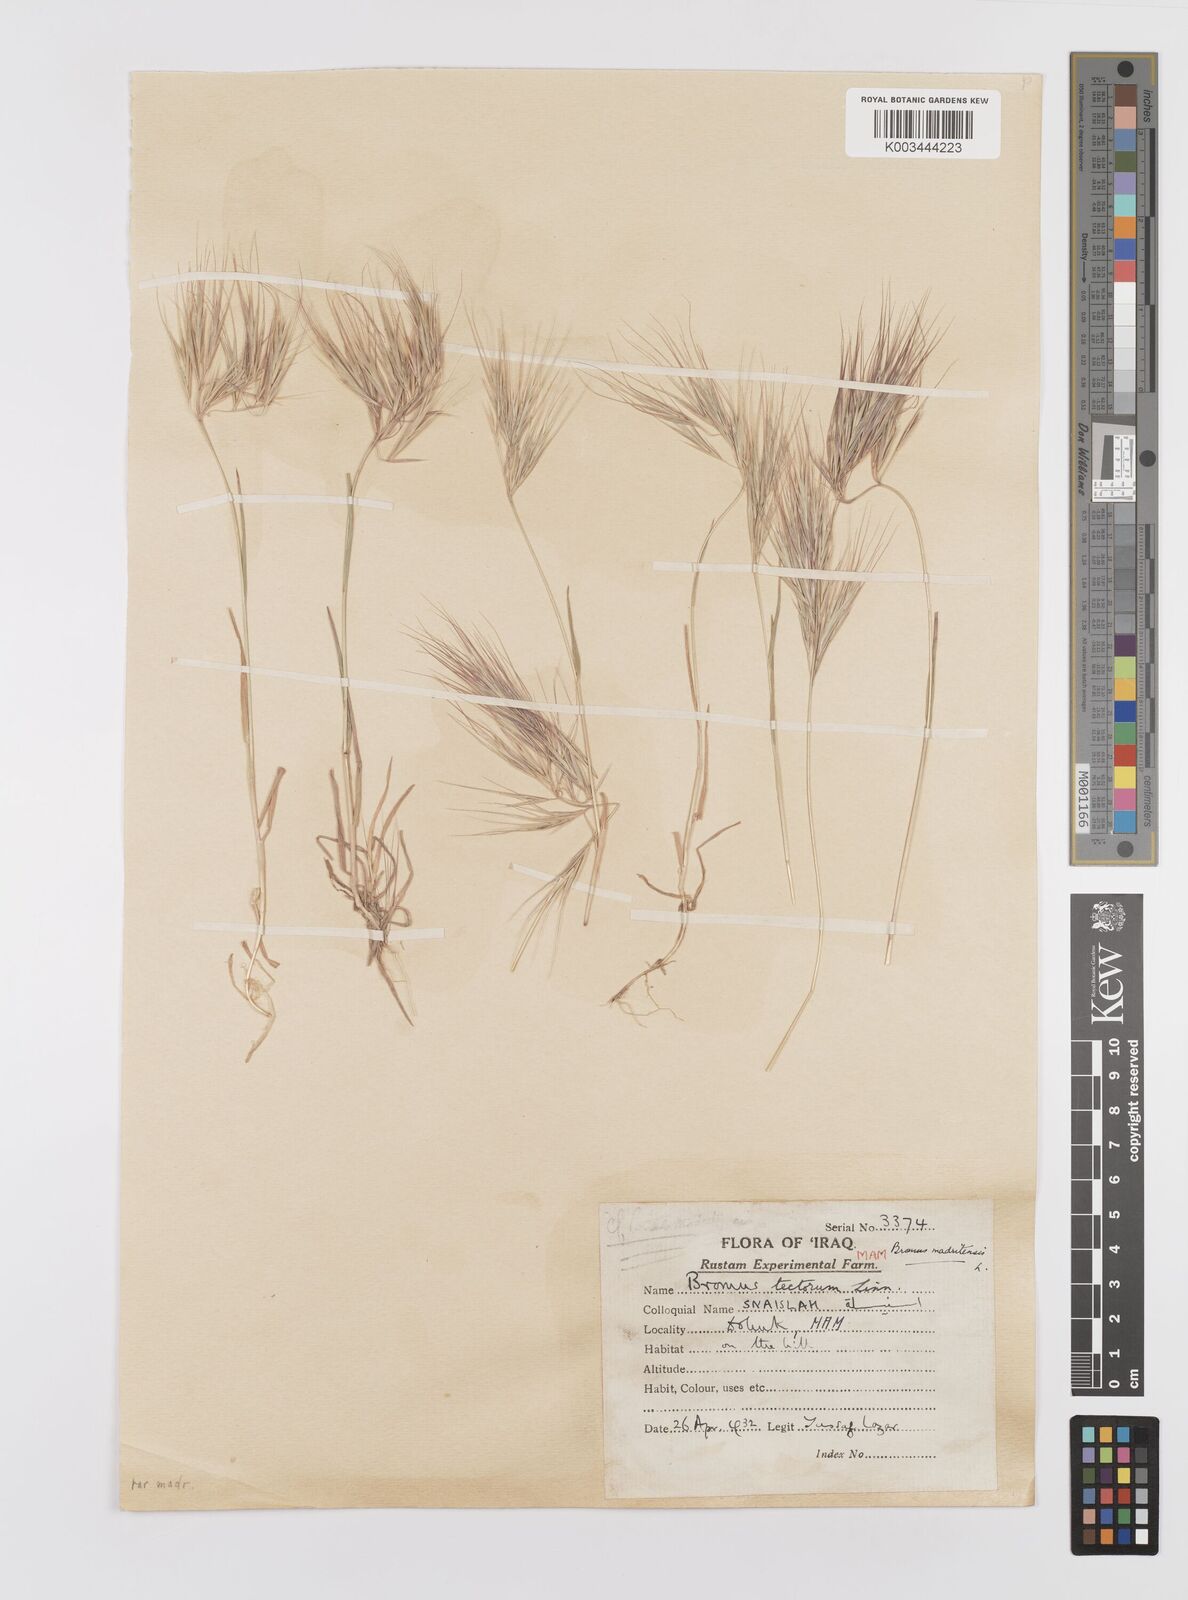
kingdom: Plantae
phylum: Tracheophyta
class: Liliopsida
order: Poales
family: Poaceae
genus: Bromus
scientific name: Bromus madritensis
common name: Compact brome
